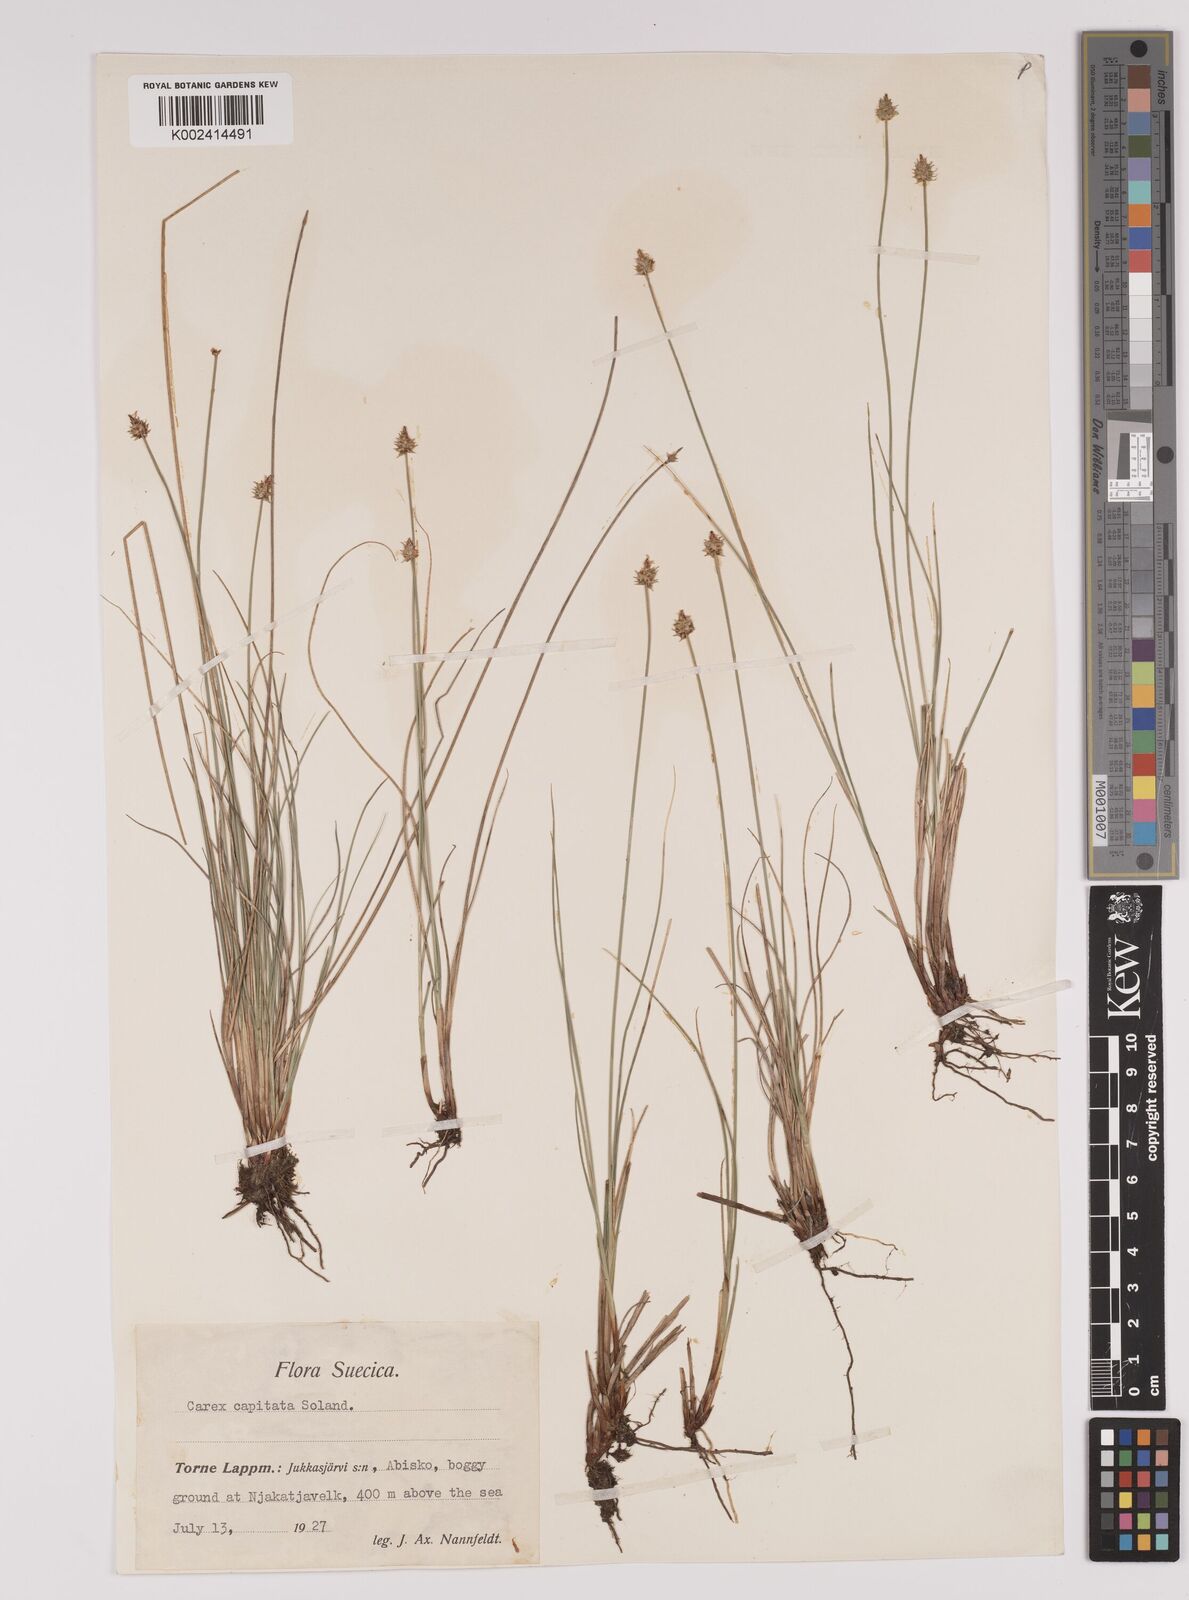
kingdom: Plantae
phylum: Tracheophyta
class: Liliopsida
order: Poales
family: Cyperaceae
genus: Carex
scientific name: Carex capitata
